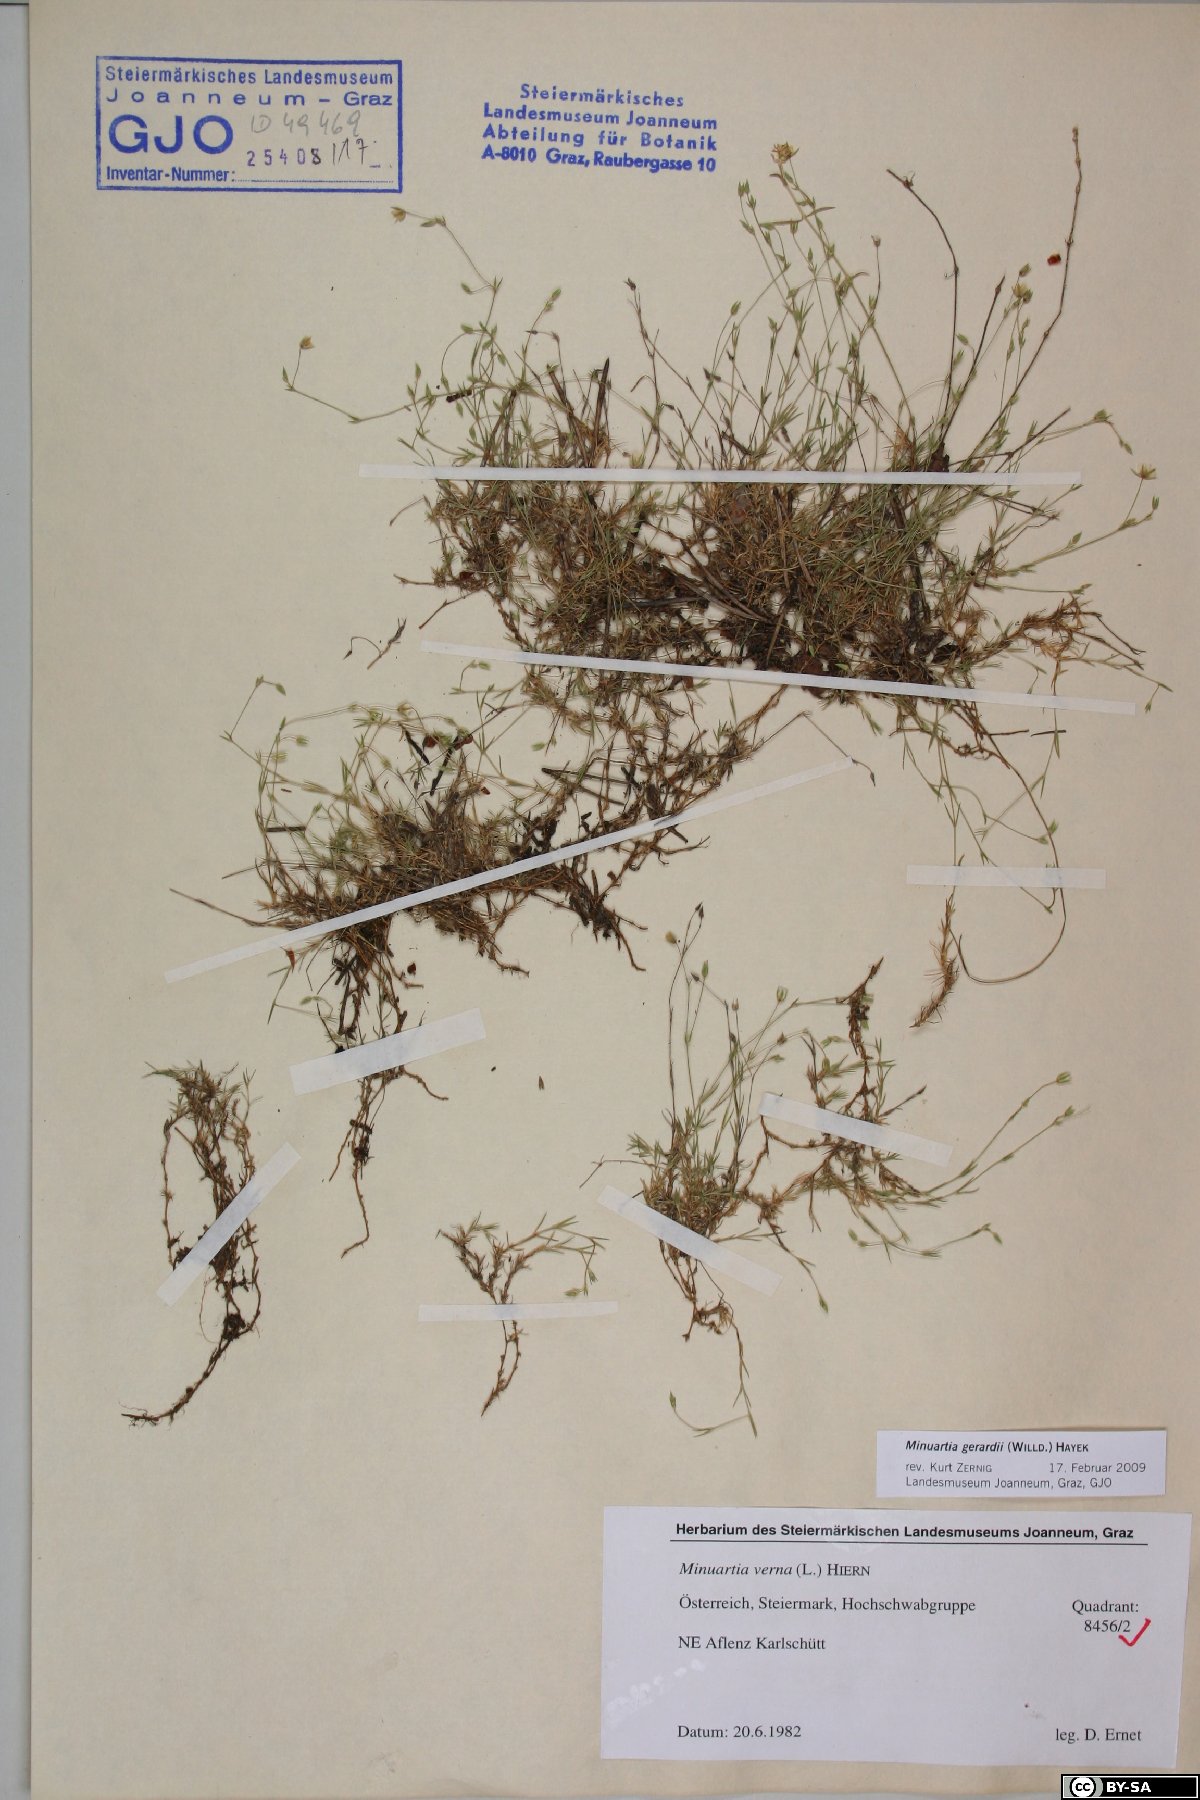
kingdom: Plantae
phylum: Tracheophyta
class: Magnoliopsida
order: Caryophyllales
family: Caryophyllaceae
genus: Sabulina
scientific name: Sabulina verna
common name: Spring sandwort
